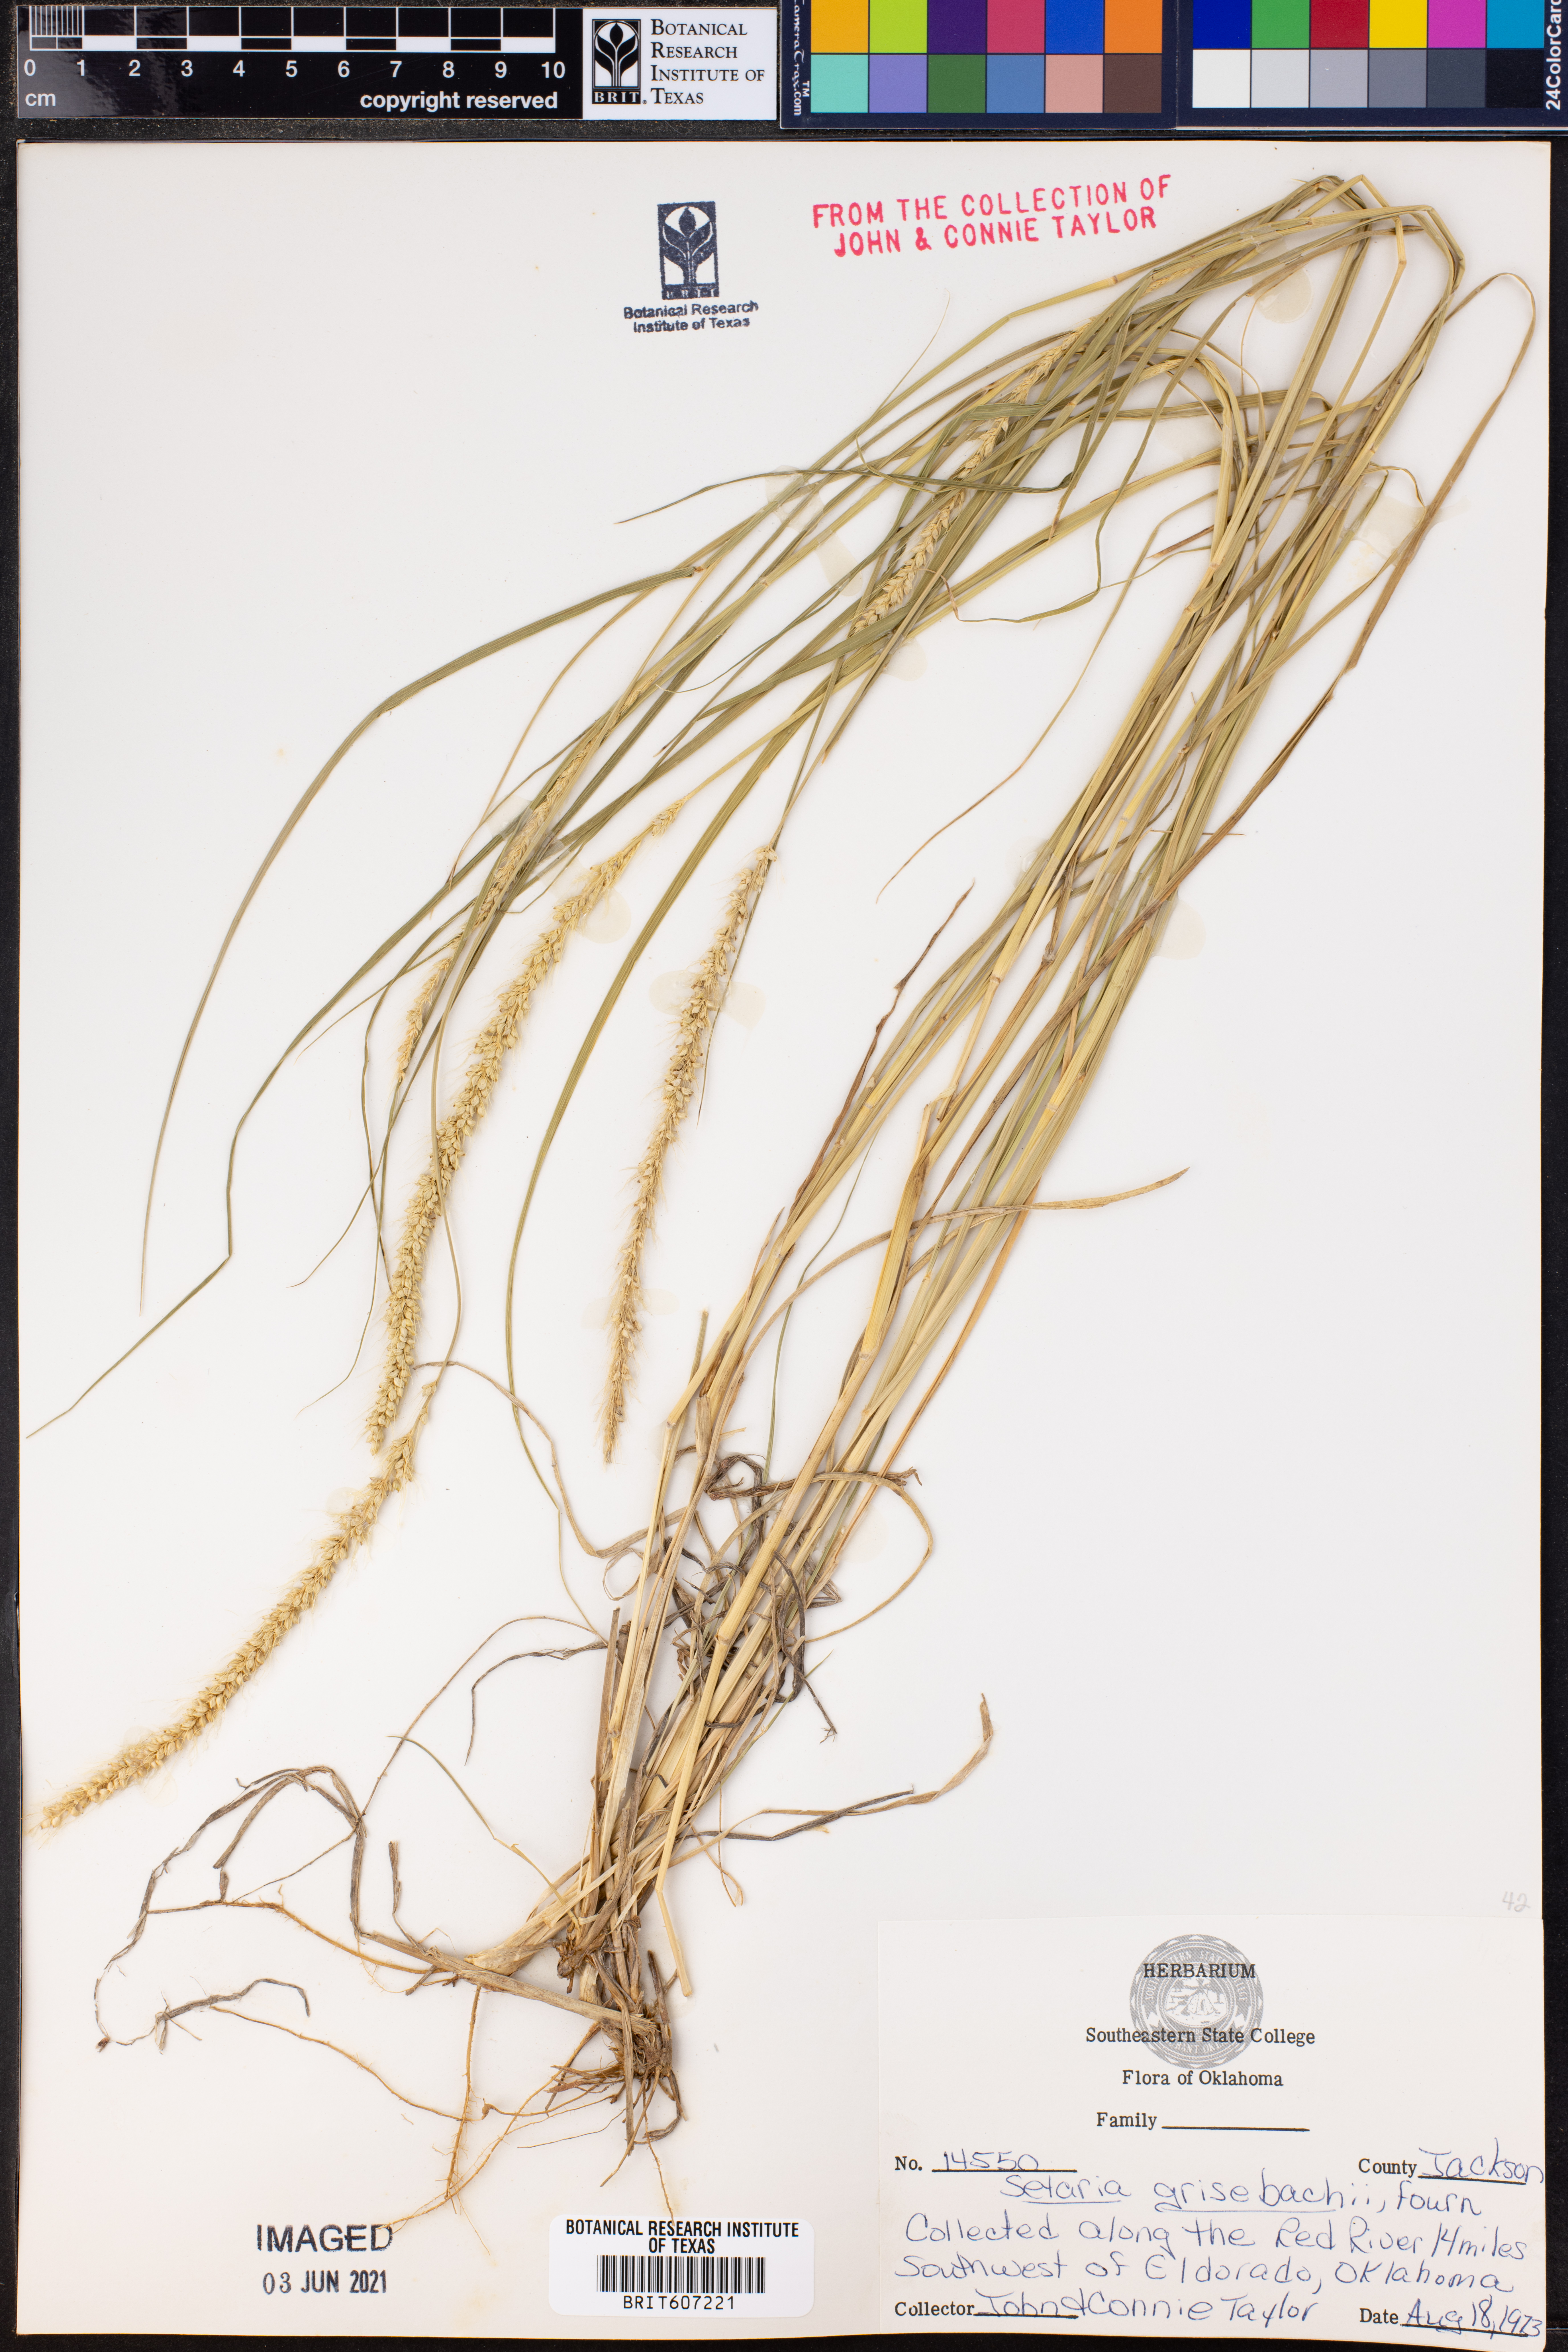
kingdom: Plantae
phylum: Tracheophyta
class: Liliopsida
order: Poales
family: Poaceae
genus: Setaria
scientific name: Setaria grisebachii
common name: Grisebach's bristle grass
